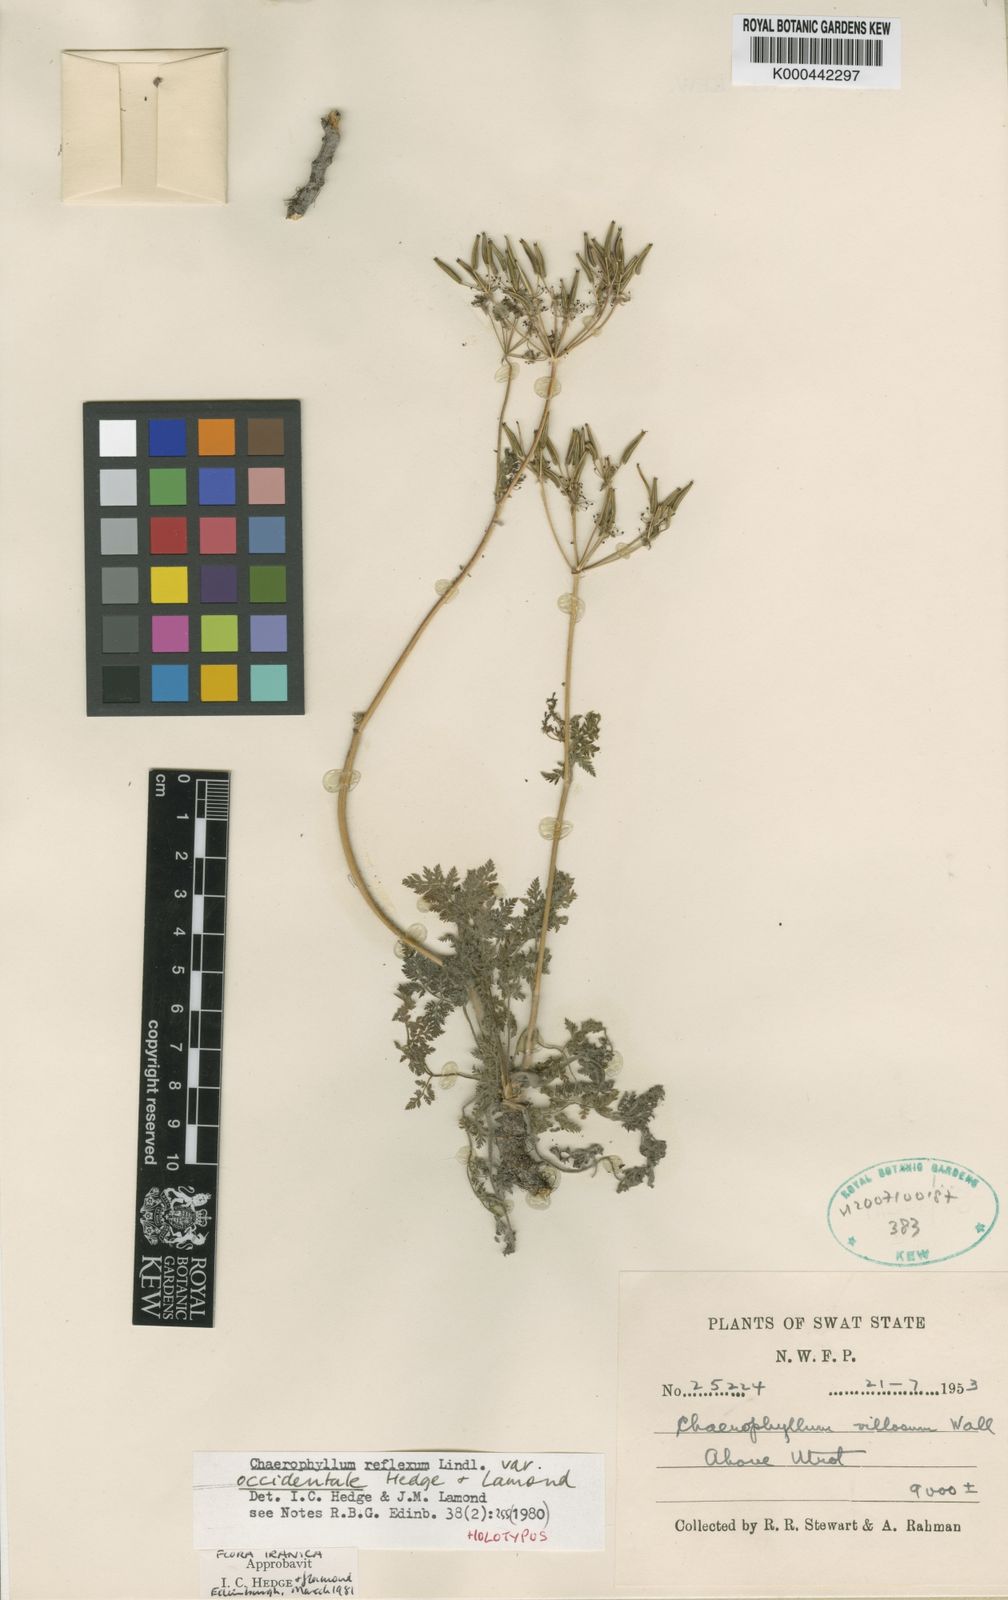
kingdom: Plantae
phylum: Tracheophyta
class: Magnoliopsida
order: Apiales
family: Apiaceae
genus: Chaerophyllum
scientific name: Chaerophyllum reflexum
